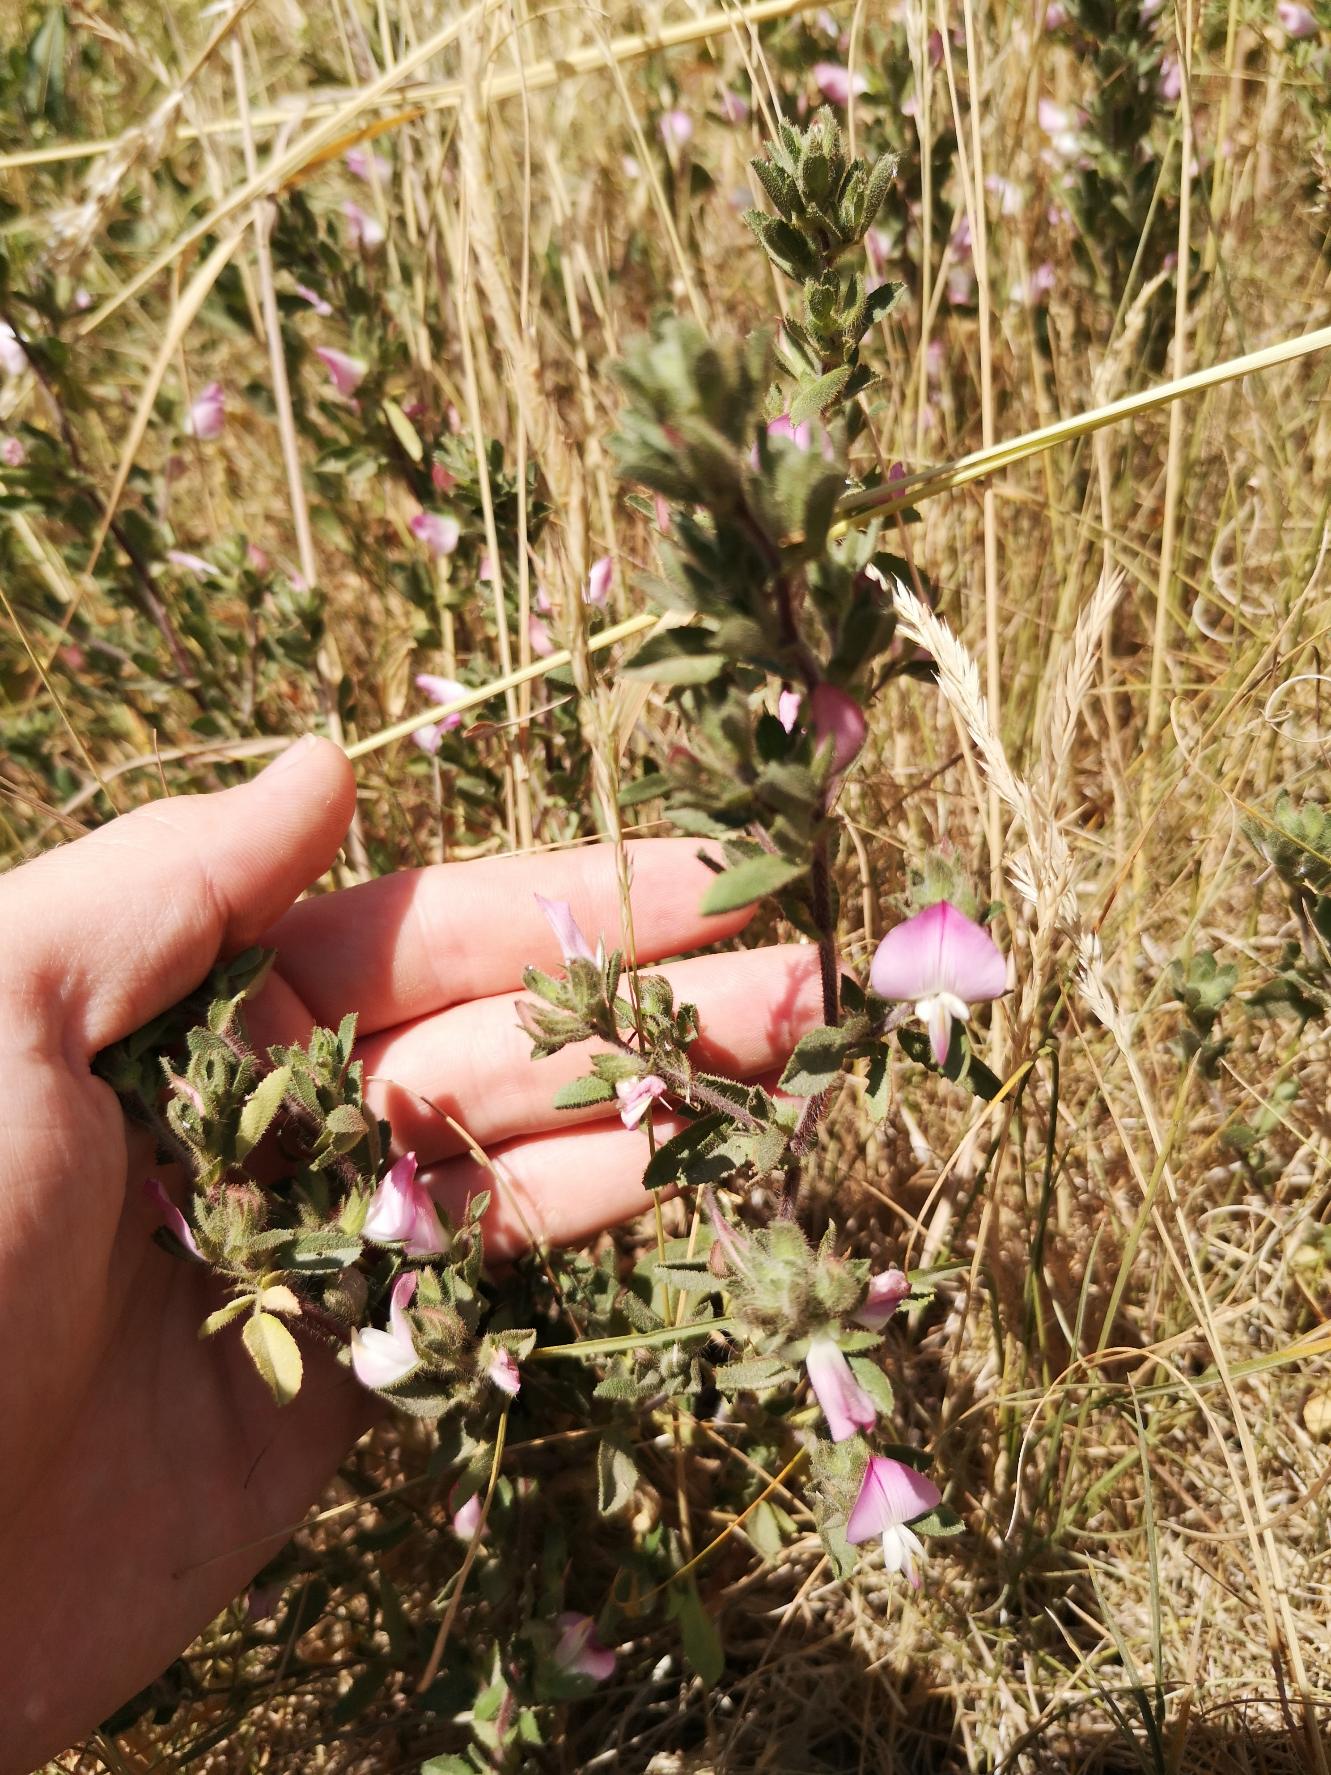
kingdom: Plantae
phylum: Tracheophyta
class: Magnoliopsida
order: Fabales
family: Fabaceae
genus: Ononis
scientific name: Ononis spinosa
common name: Krageklo
